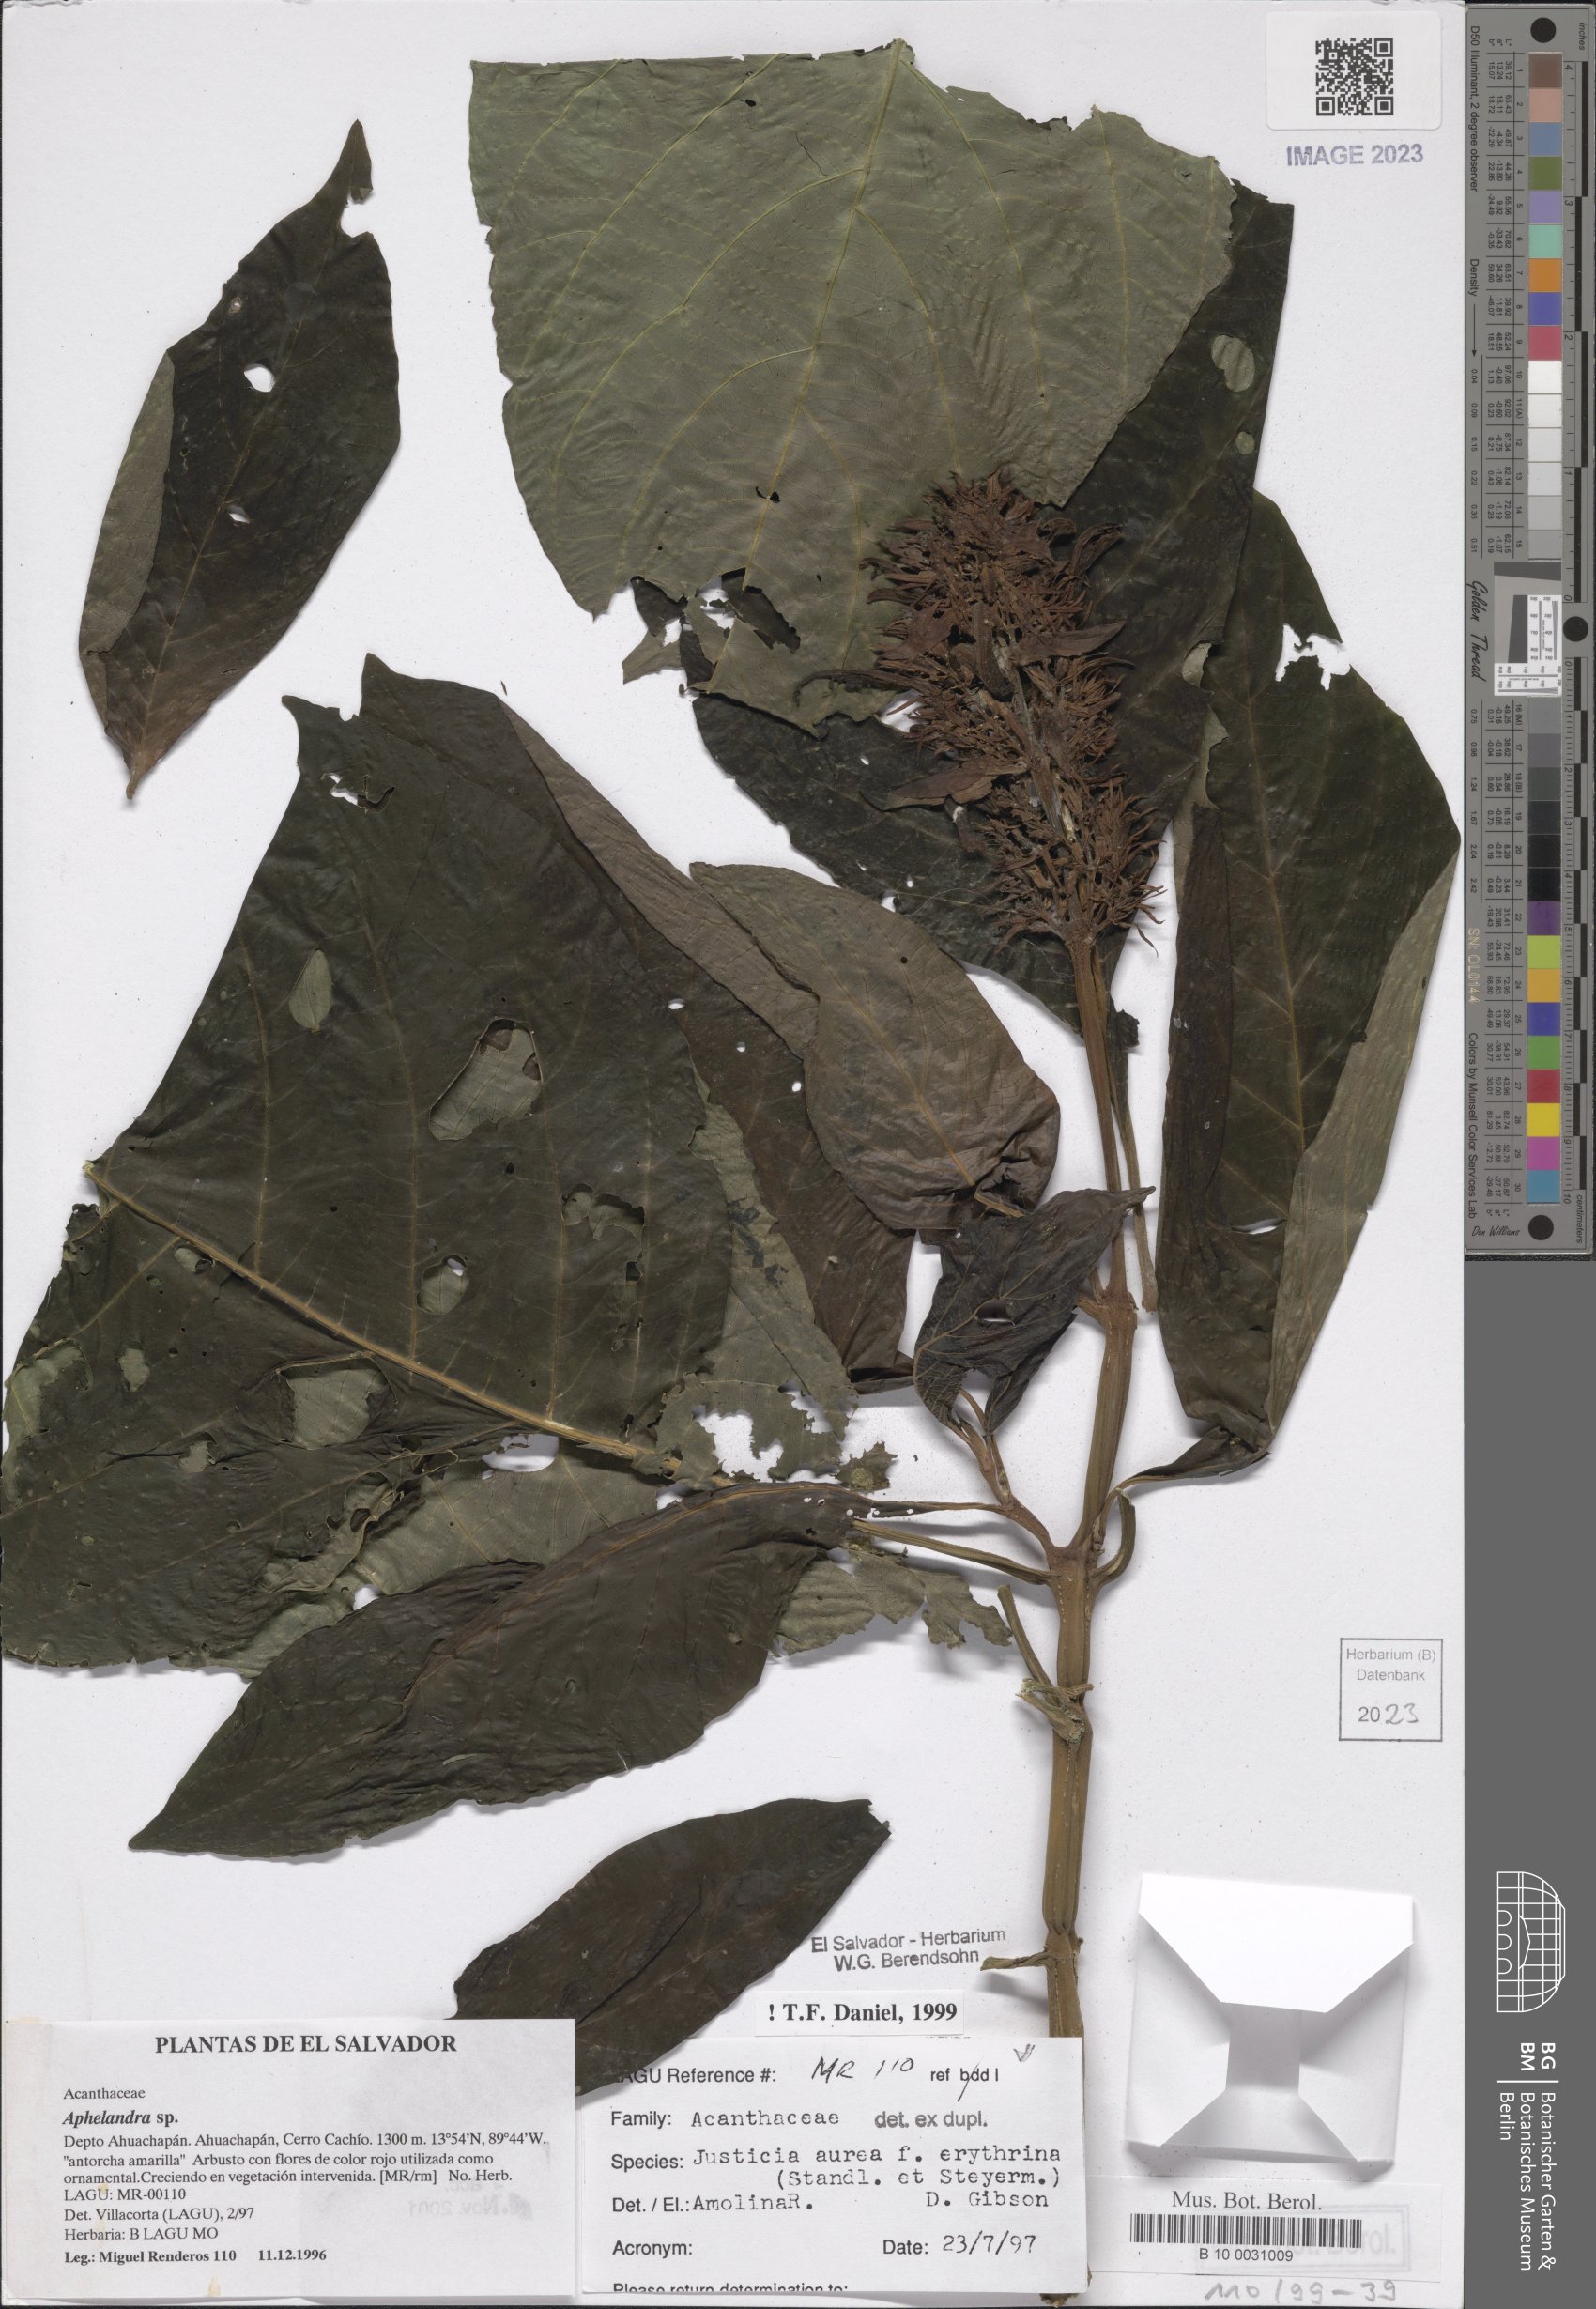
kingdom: Plantae
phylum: Tracheophyta
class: Magnoliopsida
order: Lamiales
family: Acanthaceae
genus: Justicia
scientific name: Justicia aurea
